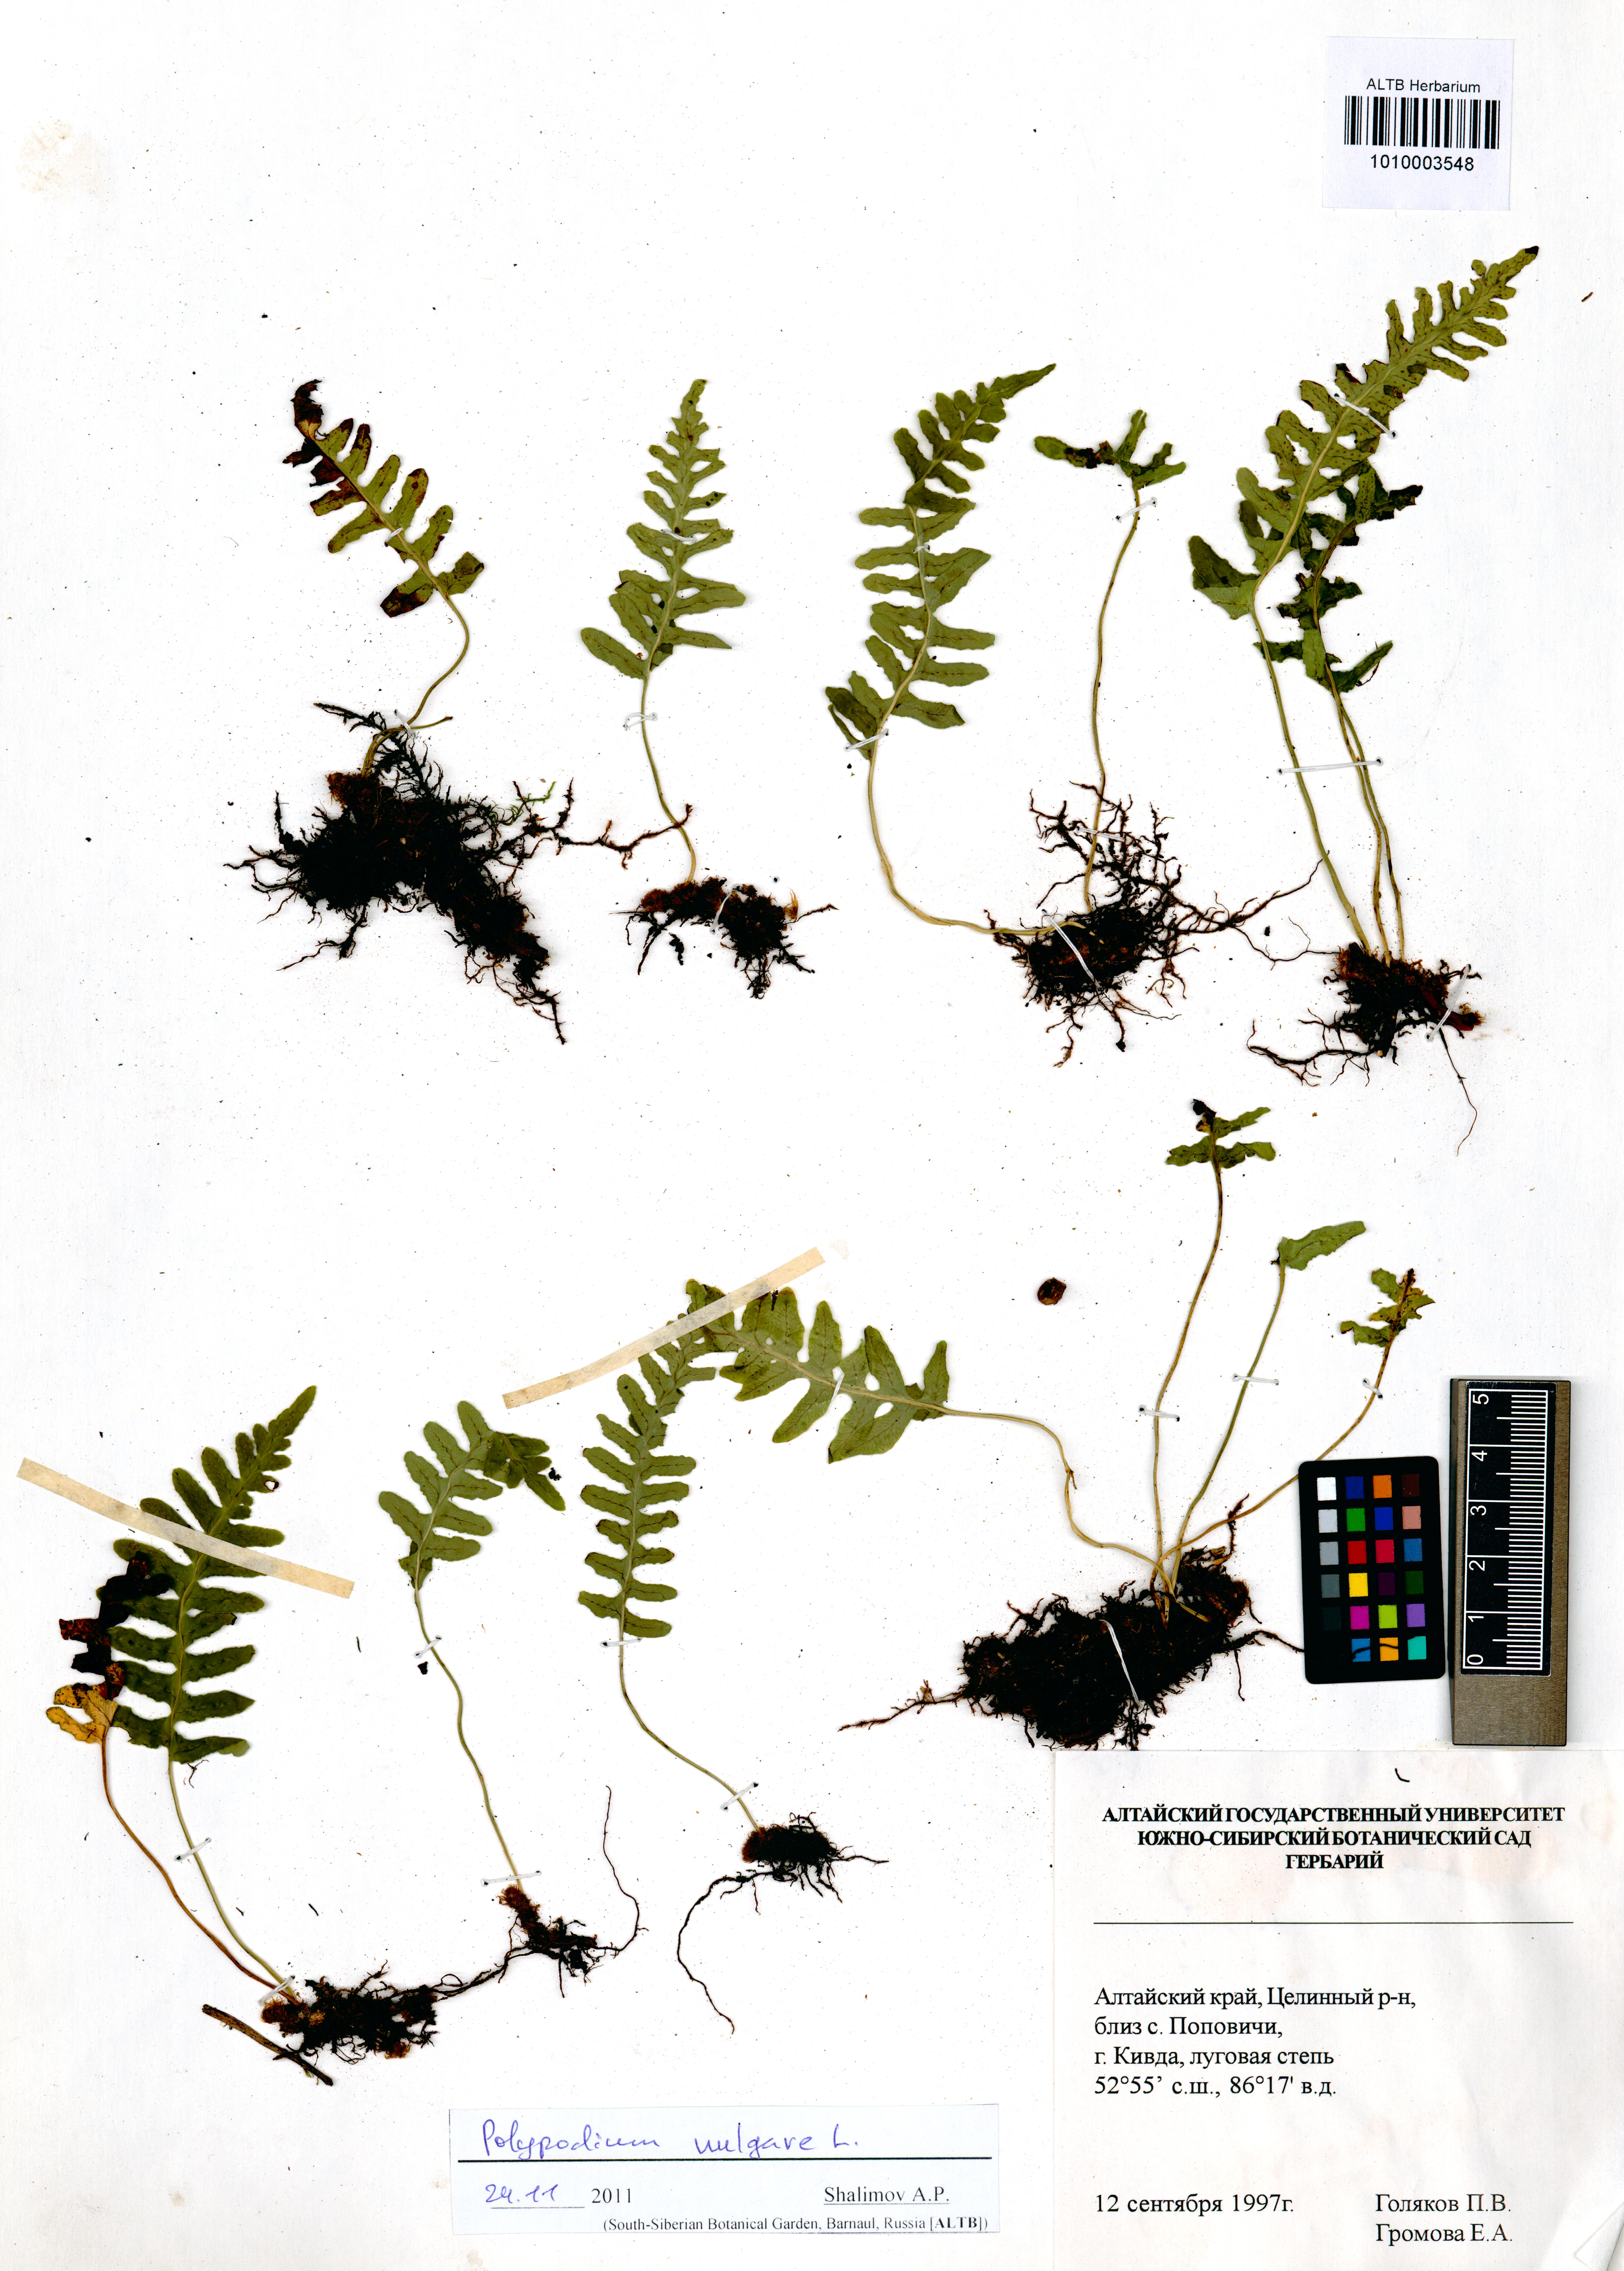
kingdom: Plantae
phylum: Tracheophyta
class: Polypodiopsida
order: Polypodiales
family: Polypodiaceae
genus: Polypodium
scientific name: Polypodium vulgare
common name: Common polypody
